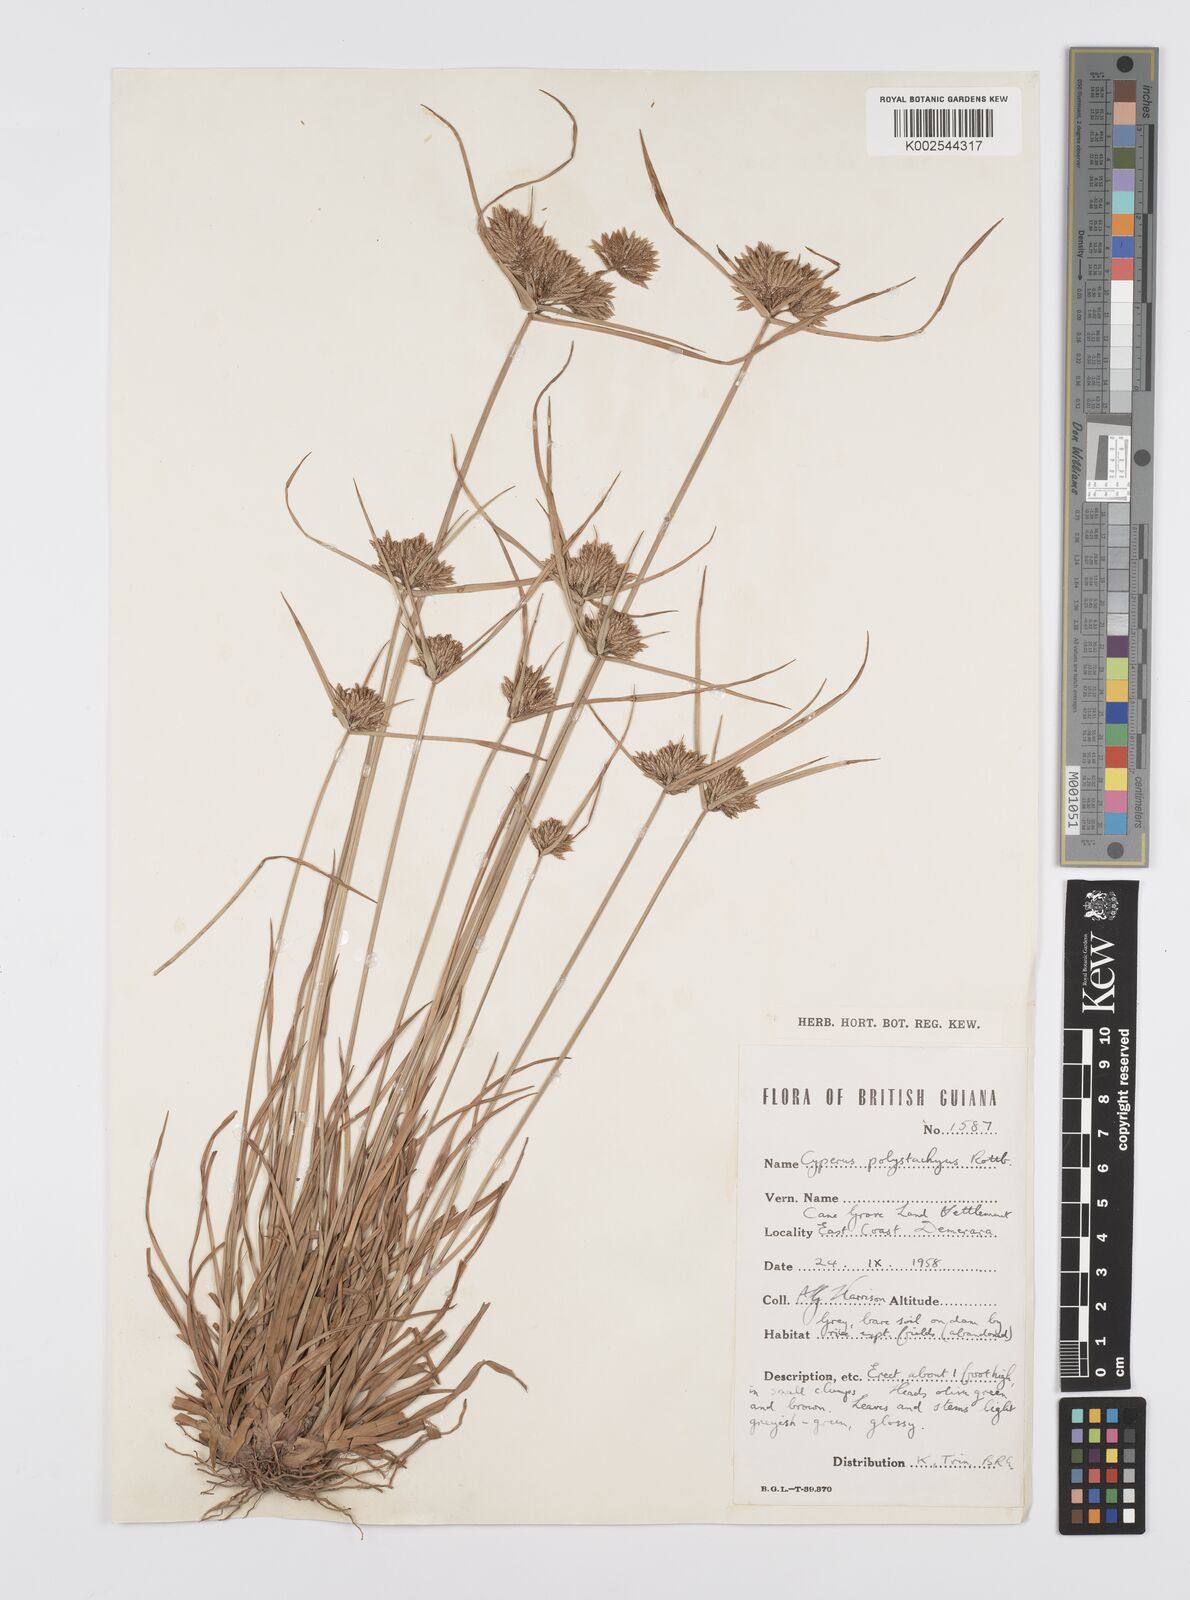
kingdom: Plantae
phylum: Tracheophyta
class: Liliopsida
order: Poales
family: Cyperaceae
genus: Cyperus
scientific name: Cyperus polystachyos
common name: Bunchy flat sedge
